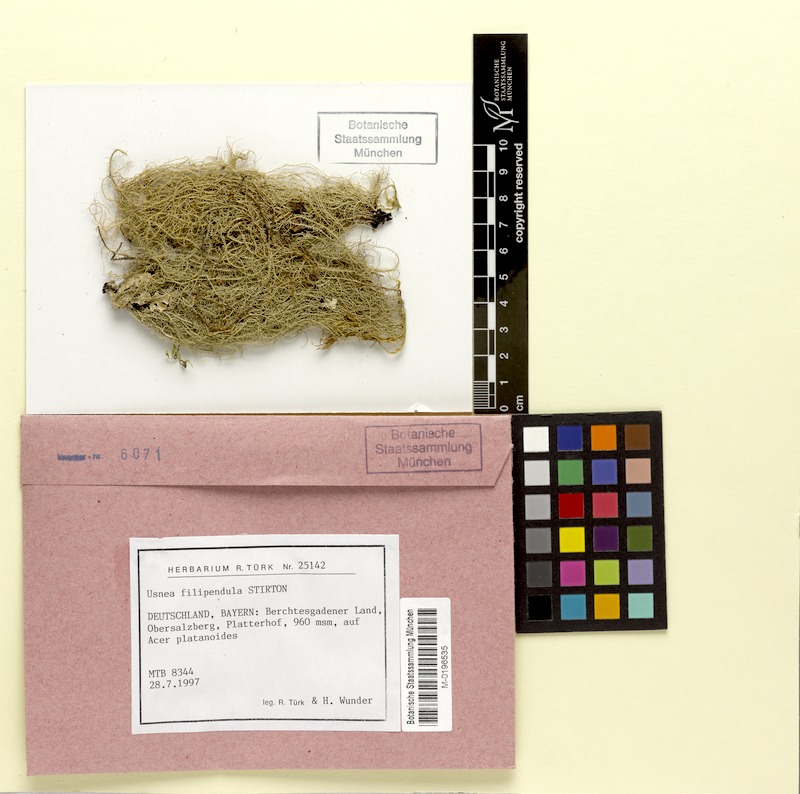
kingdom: Fungi
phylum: Ascomycota
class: Lecanoromycetes
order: Lecanorales
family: Parmeliaceae
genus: Usnea
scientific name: Usnea filipendula
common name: Fishbone beard lichen
